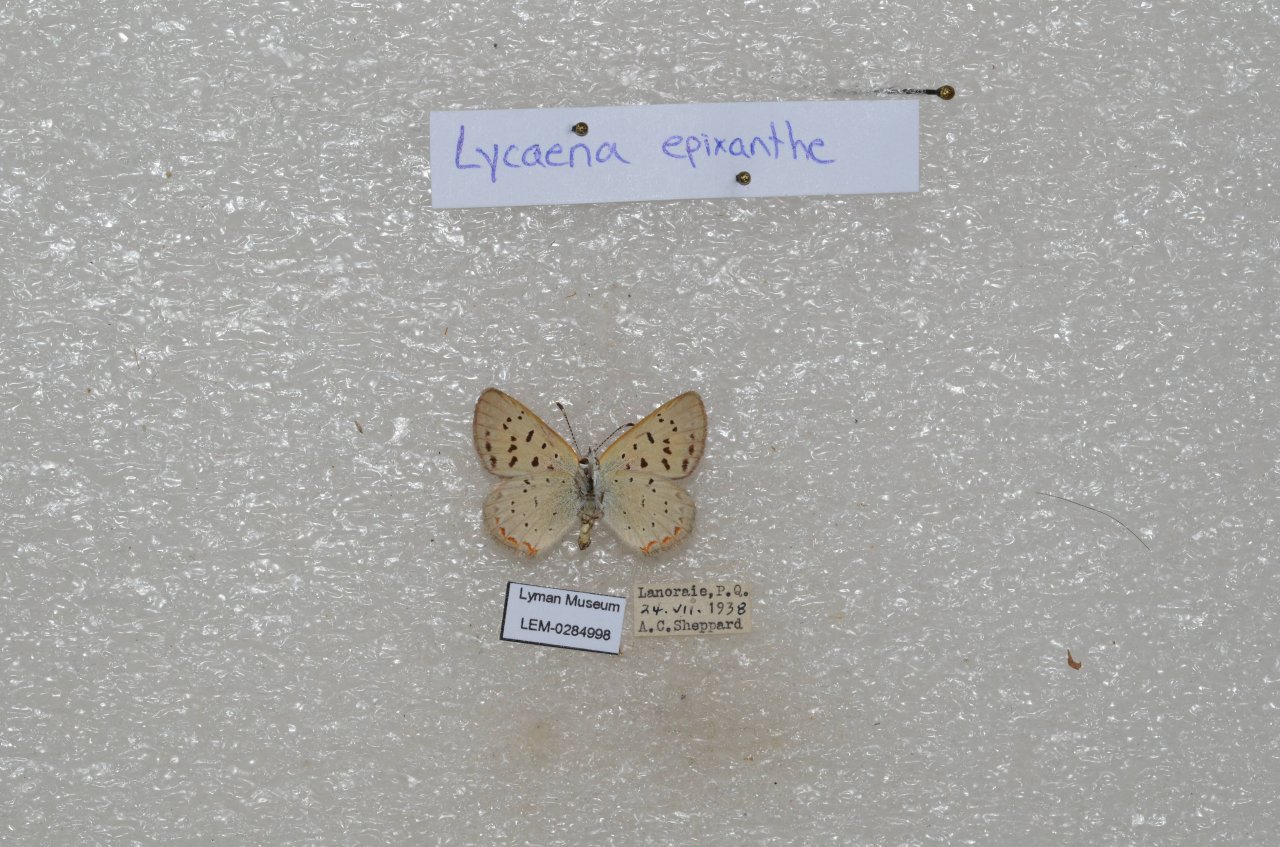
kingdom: Animalia
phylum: Arthropoda
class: Insecta
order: Lepidoptera
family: Sesiidae
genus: Sesia
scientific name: Sesia Lycaena epixanthe
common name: Bog Copper
